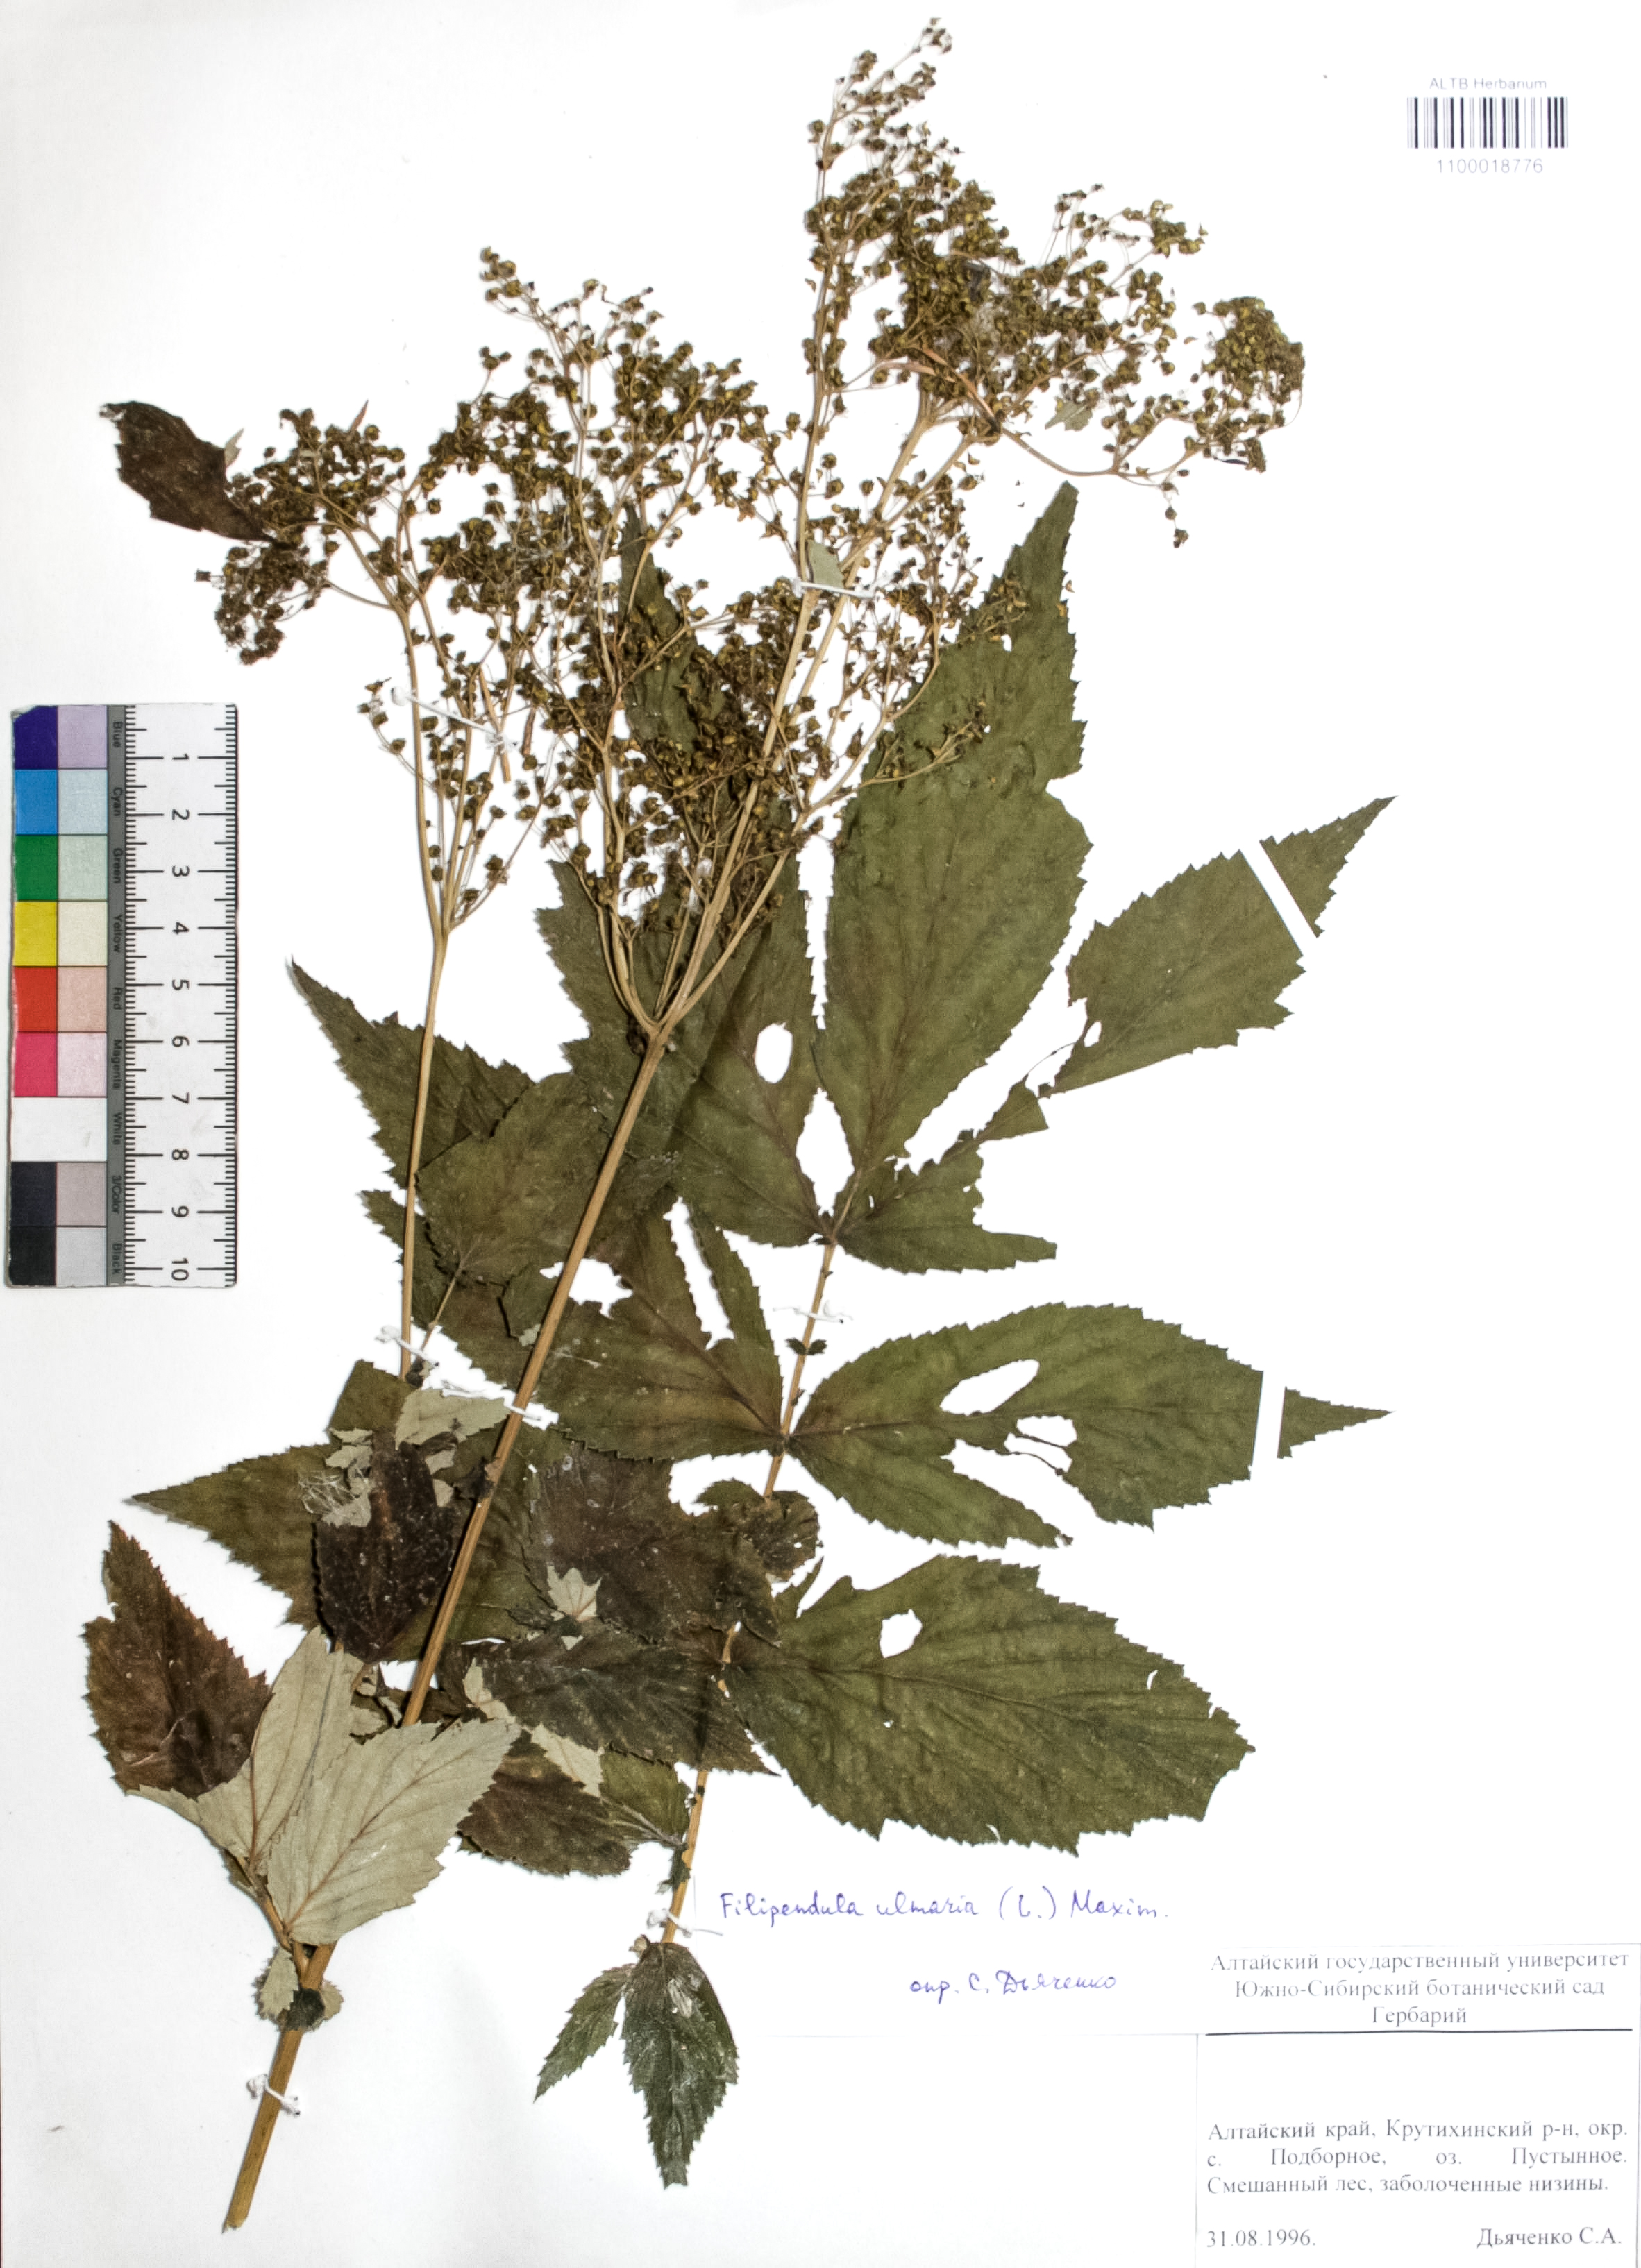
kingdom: Plantae
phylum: Tracheophyta
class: Magnoliopsida
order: Rosales
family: Rosaceae
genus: Filipendula
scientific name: Filipendula ulmaria
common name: Meadowsweet
